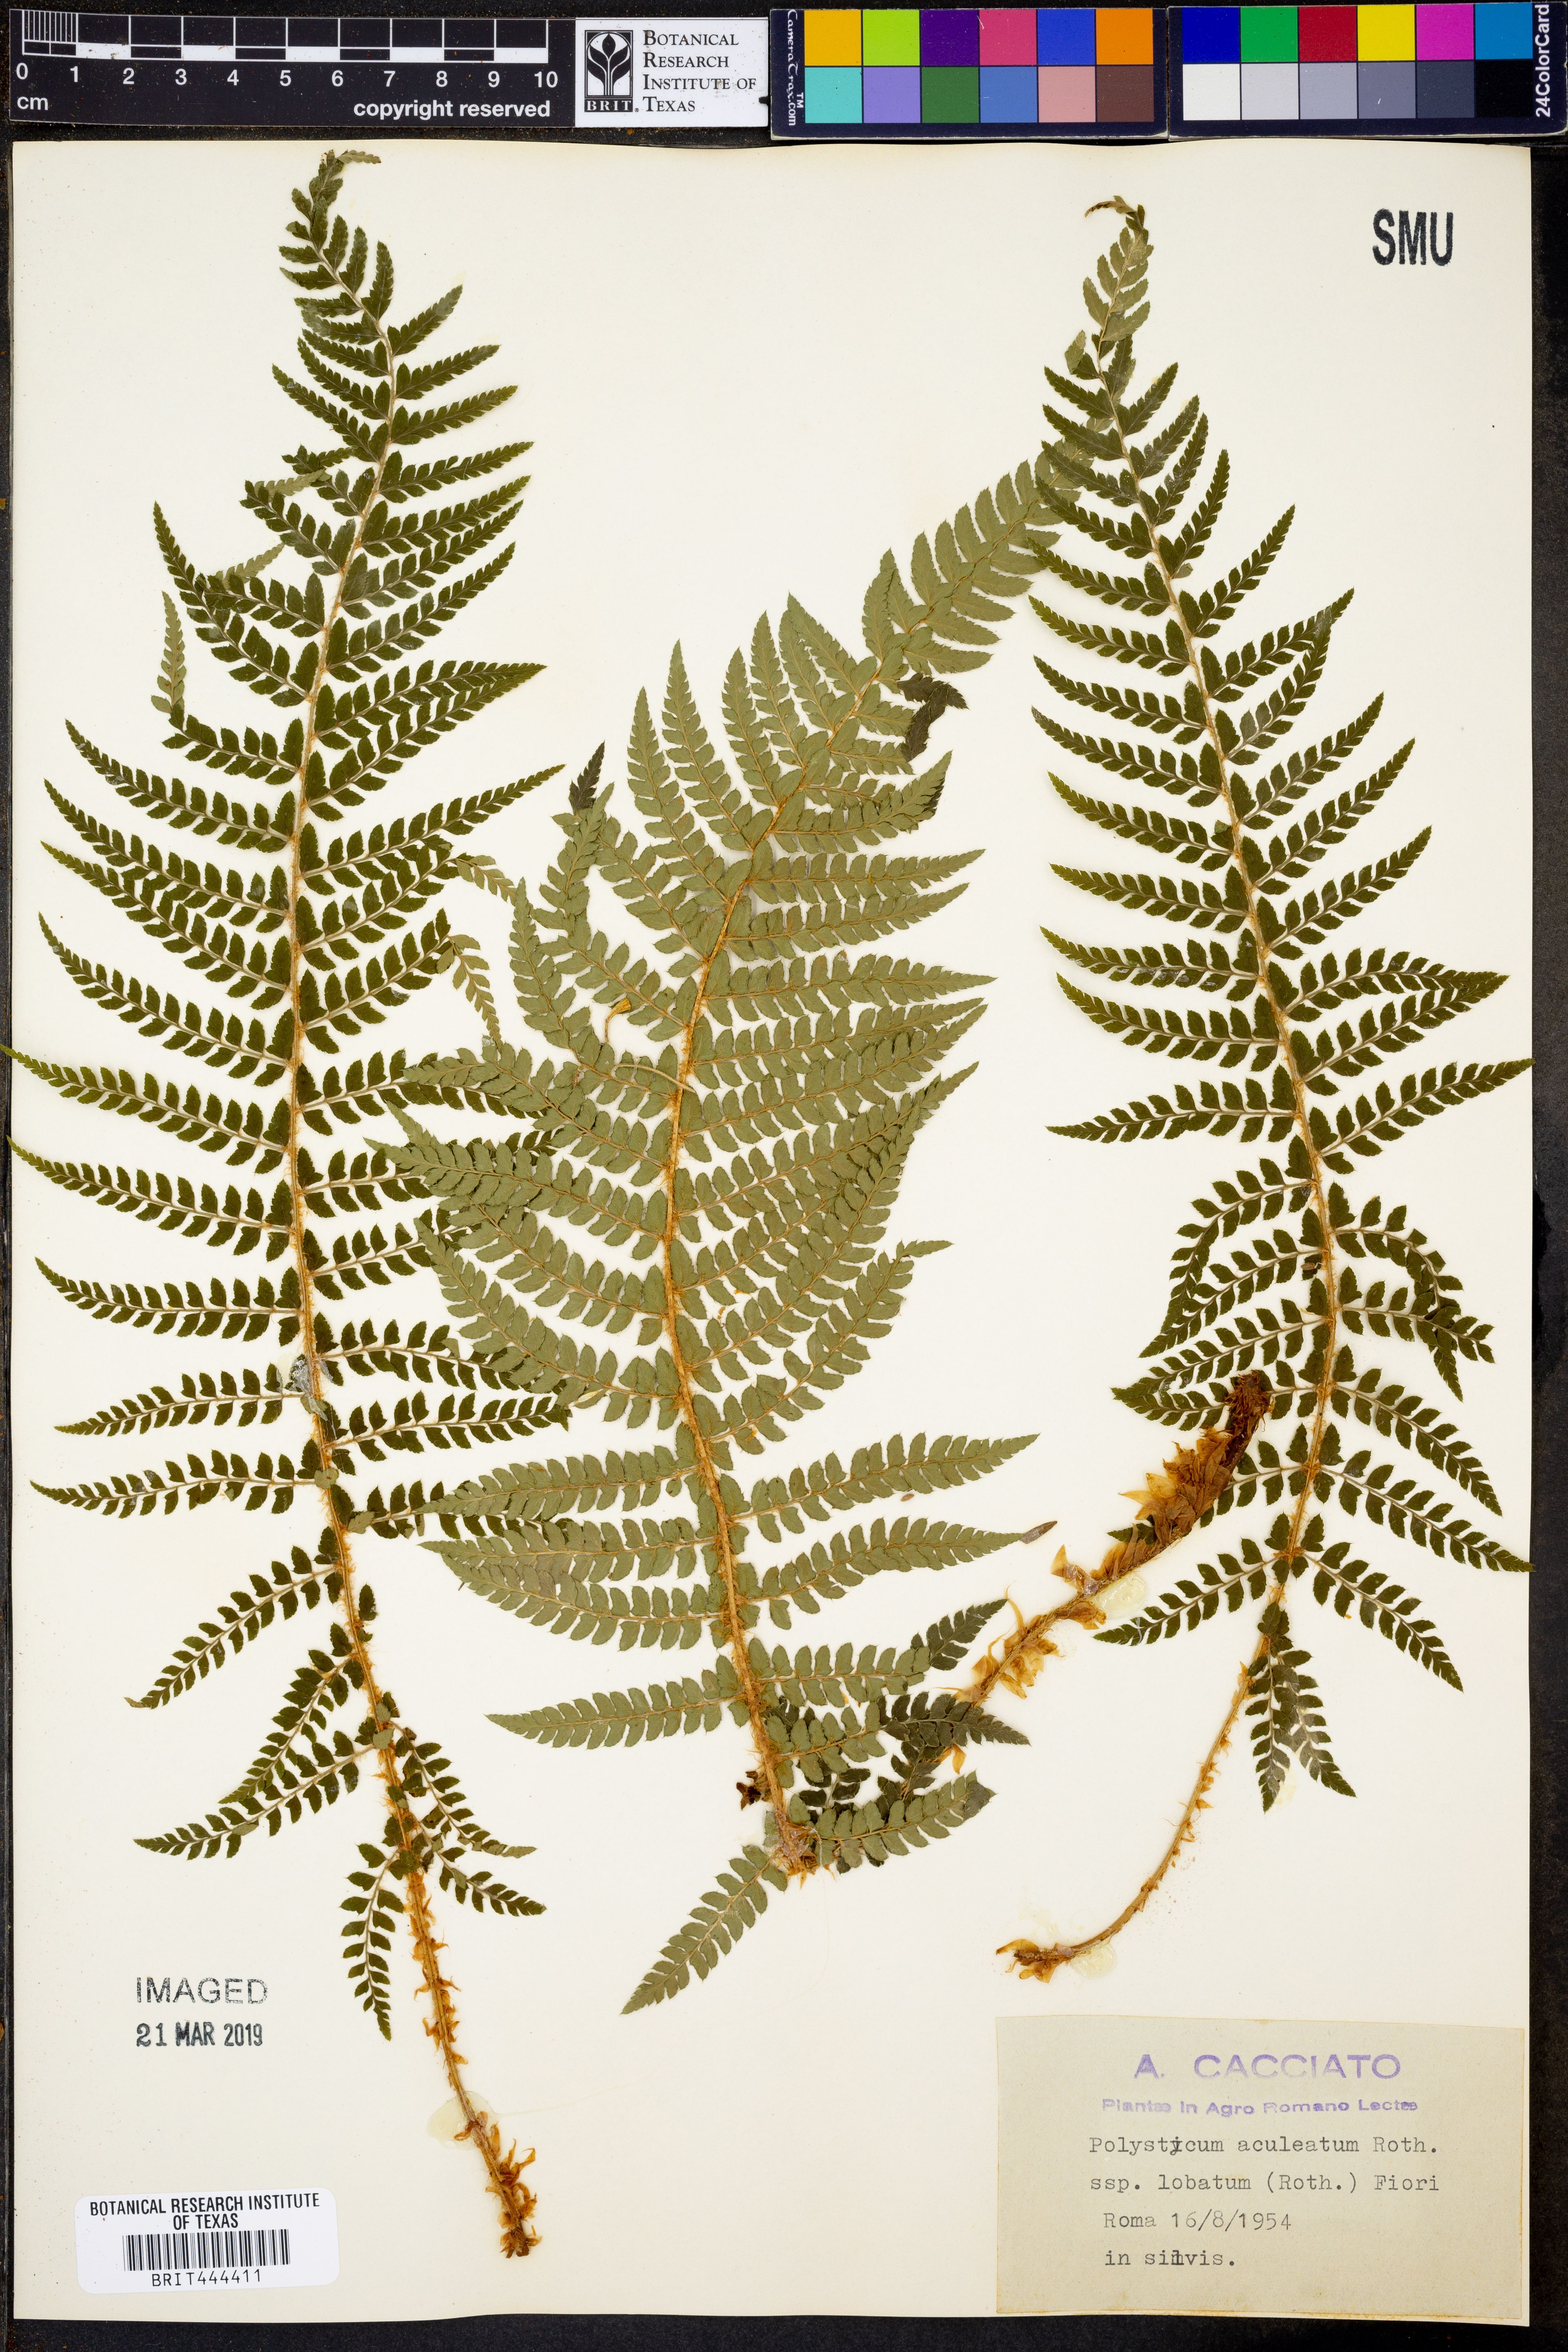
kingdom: Plantae
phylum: Tracheophyta
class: Polypodiopsida
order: Polypodiales
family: Dryopteridaceae
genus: Polystichum
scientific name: Polystichum aculeatum
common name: Hard shield-fern
